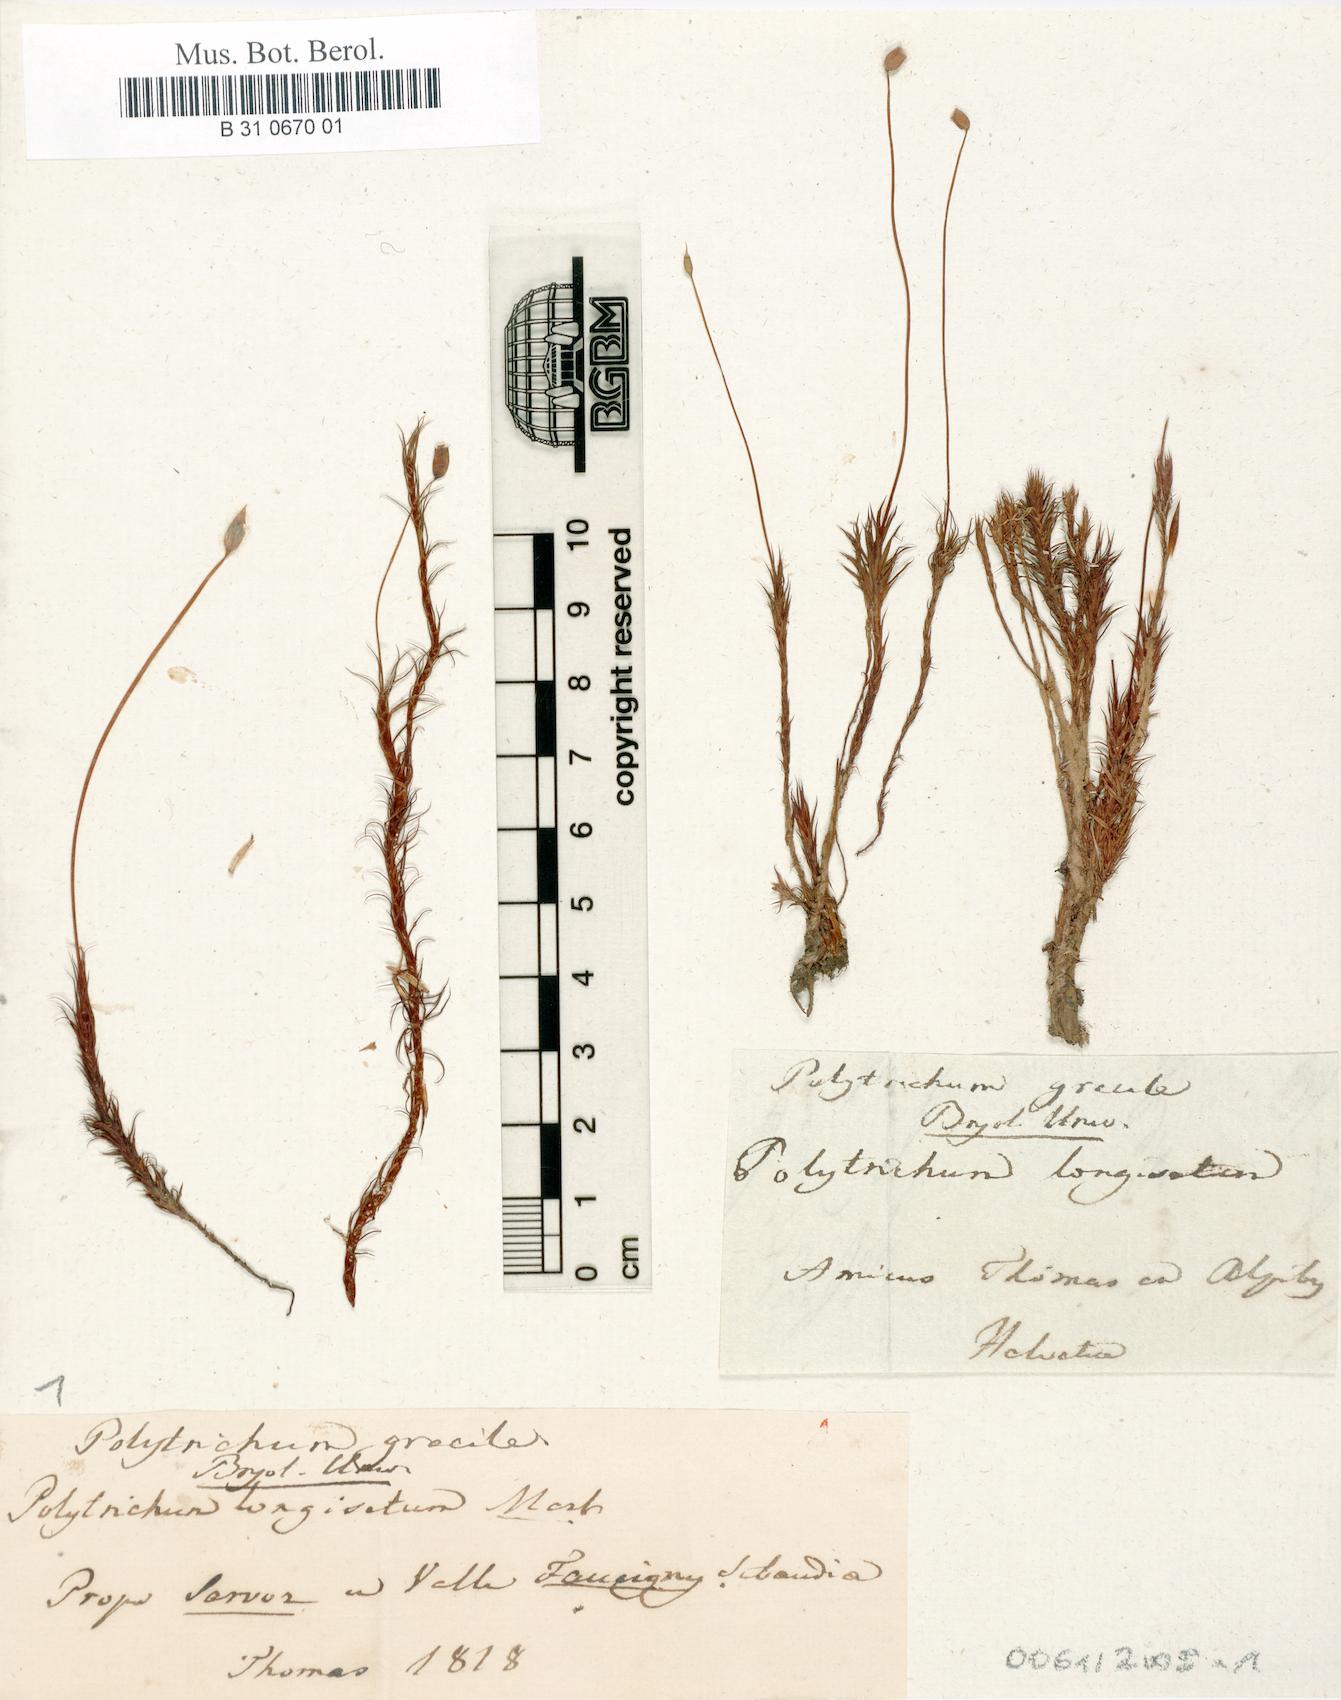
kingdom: Plantae
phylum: Bryophyta
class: Polytrichopsida
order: Polytrichales
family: Polytrichaceae
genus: Polytrichum
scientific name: Polytrichum longisetum
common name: Long-stalked haircap moss
